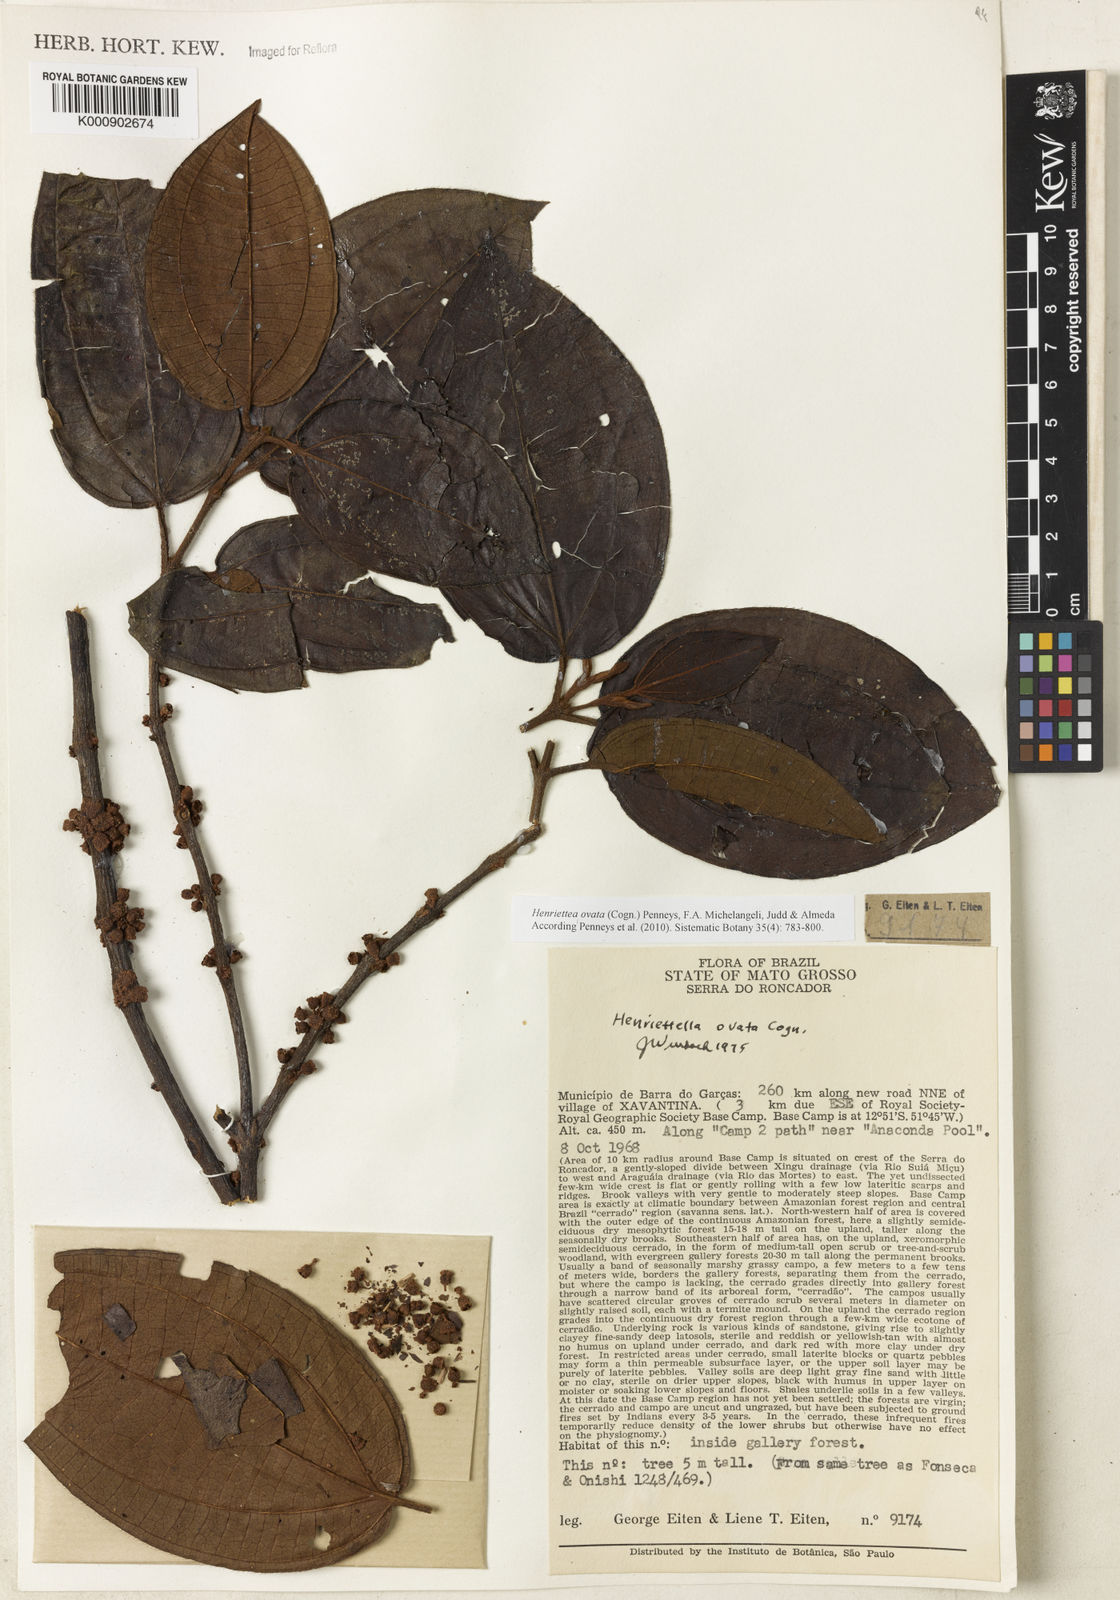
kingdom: Plantae
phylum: Tracheophyta
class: Magnoliopsida
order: Myrtales
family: Melastomataceae
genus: Henriettea
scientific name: Henriettea ovata
